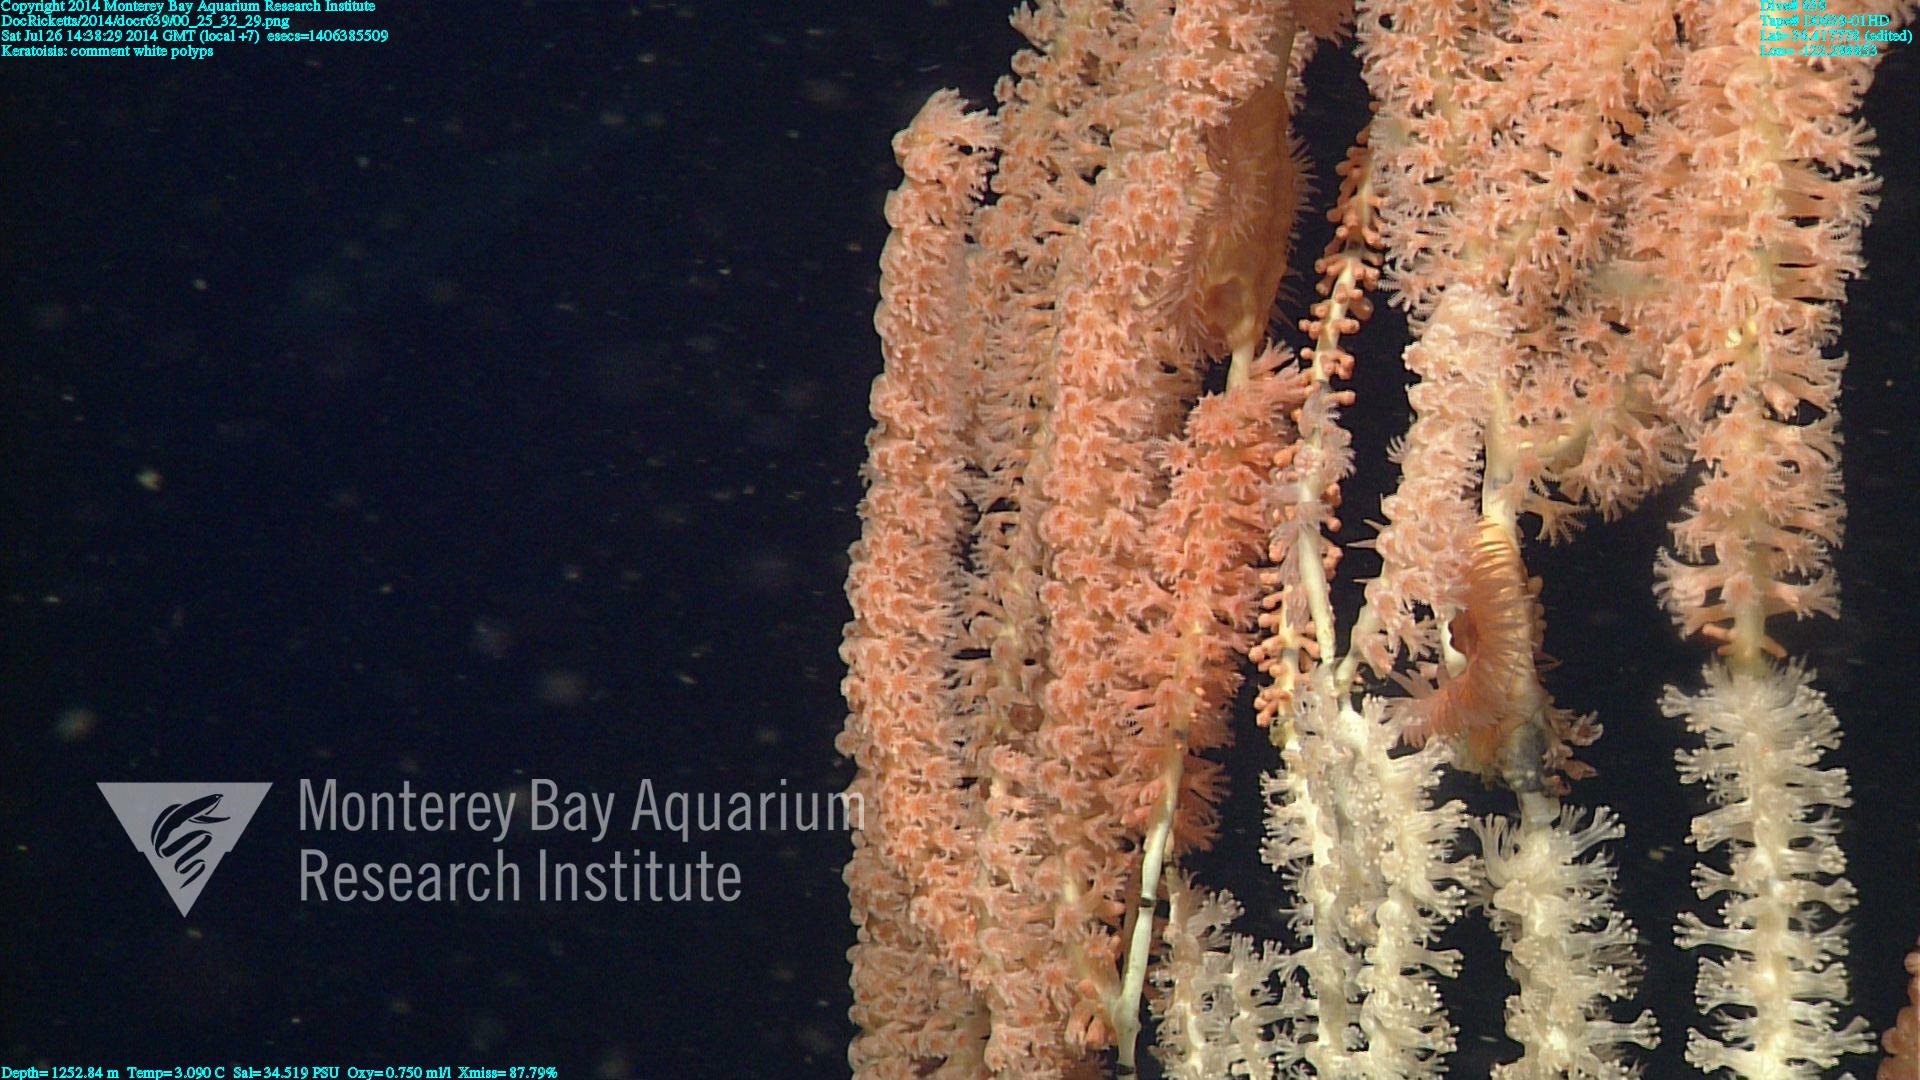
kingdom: Animalia
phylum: Cnidaria
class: Anthozoa
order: Scleralcyonacea
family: Keratoisididae
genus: Keratoisis
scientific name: Keratoisis
